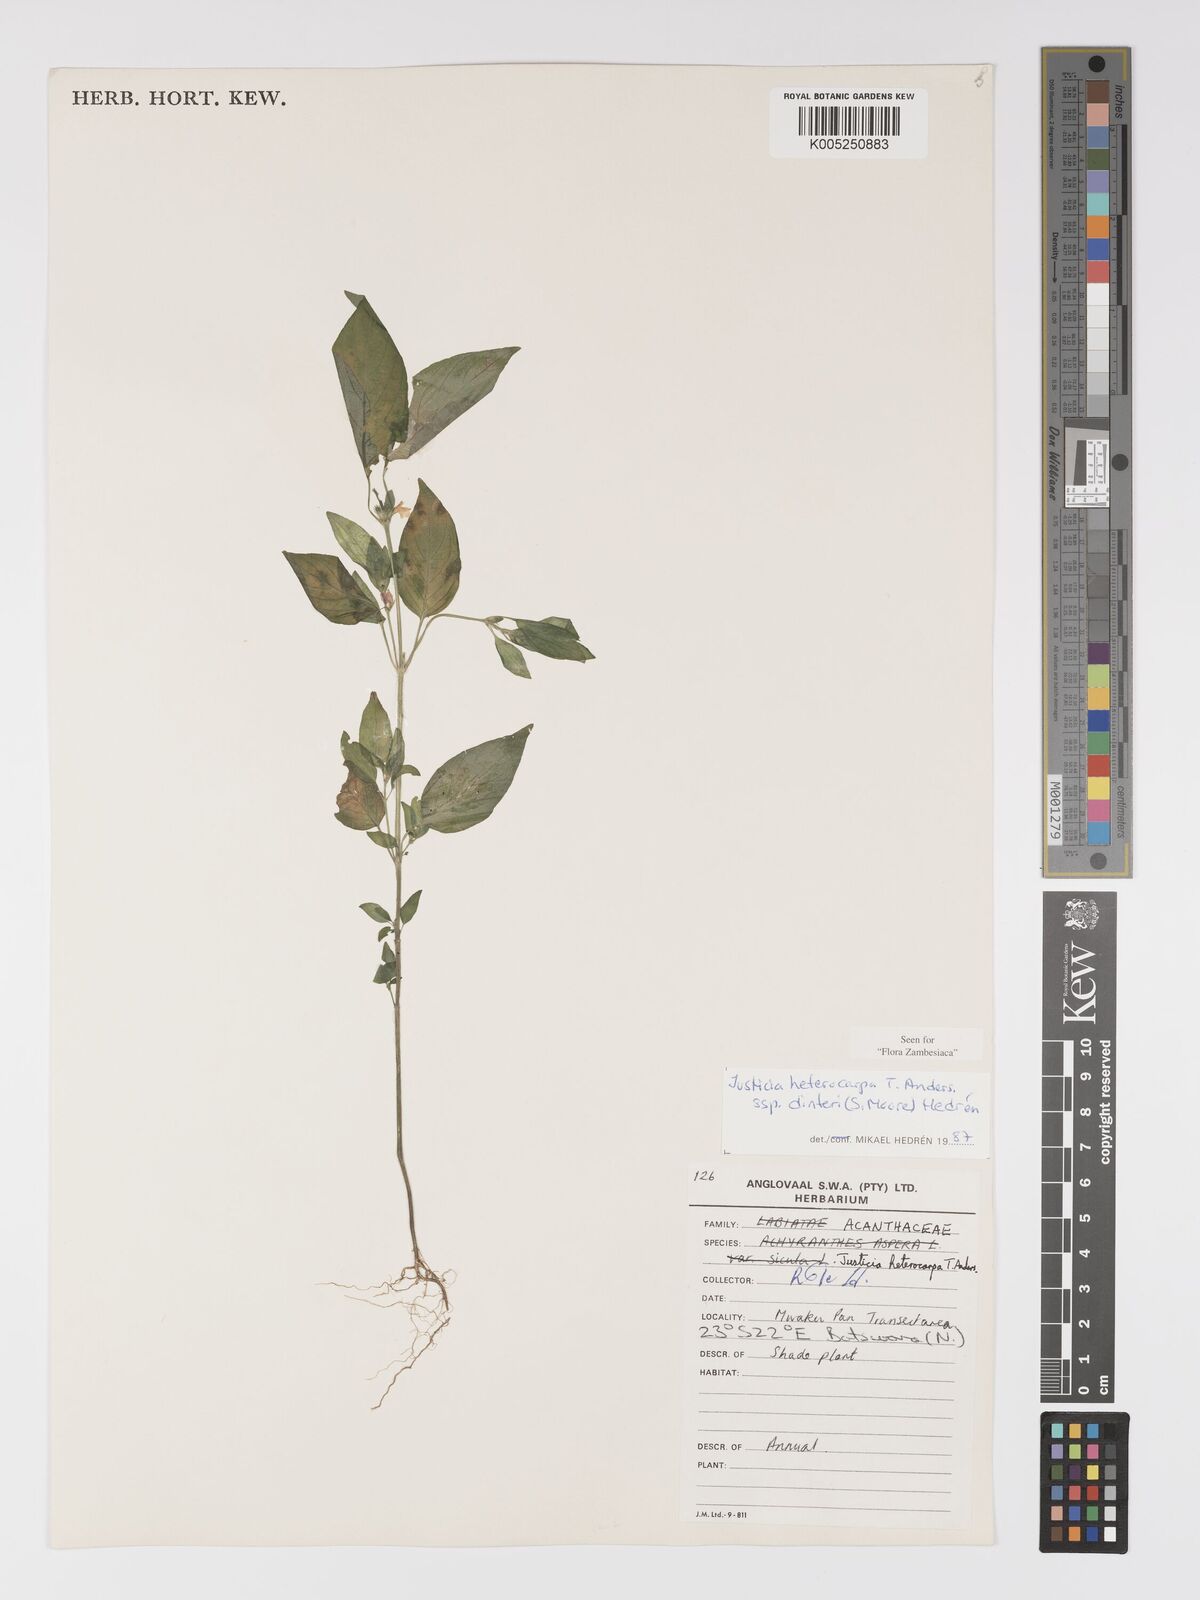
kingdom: Plantae
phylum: Tracheophyta
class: Magnoliopsida
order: Lamiales
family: Acanthaceae
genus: Justicia
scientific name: Justicia heterocarpa
